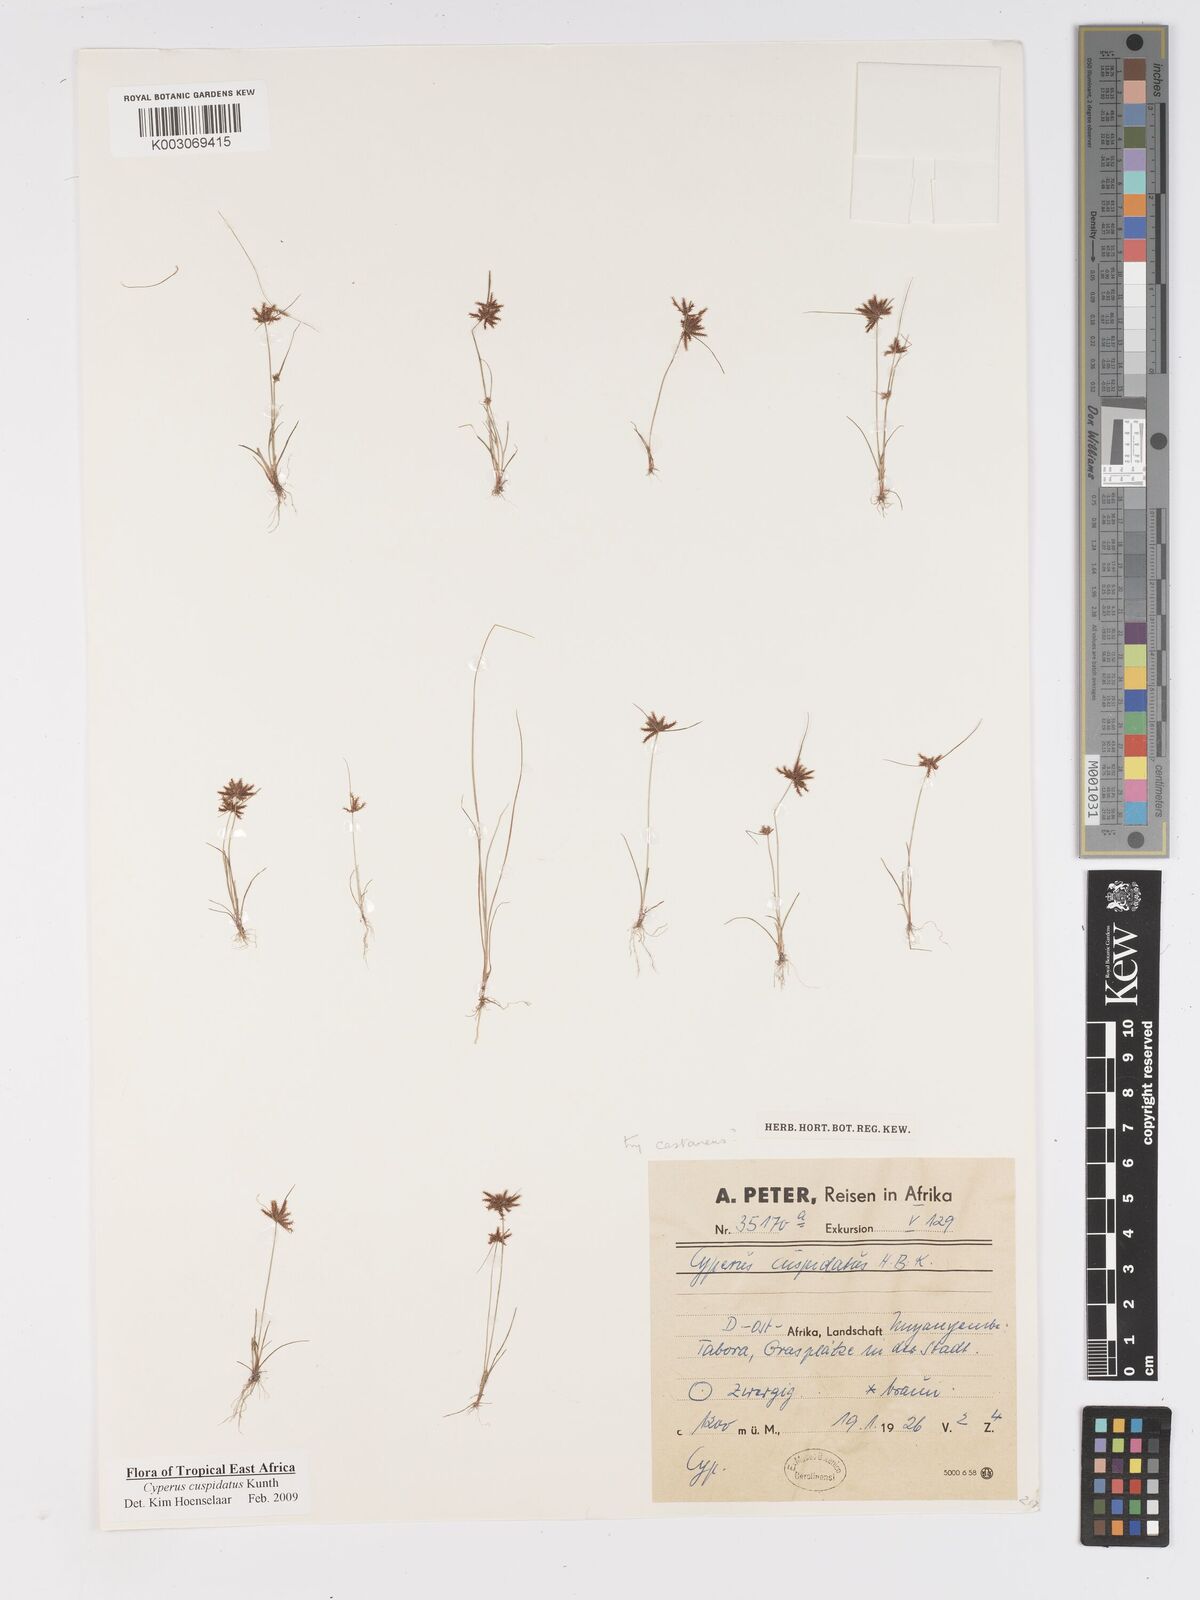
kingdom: Plantae
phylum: Tracheophyta
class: Liliopsida
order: Poales
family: Cyperaceae
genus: Cyperus
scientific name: Cyperus cuspidatus
